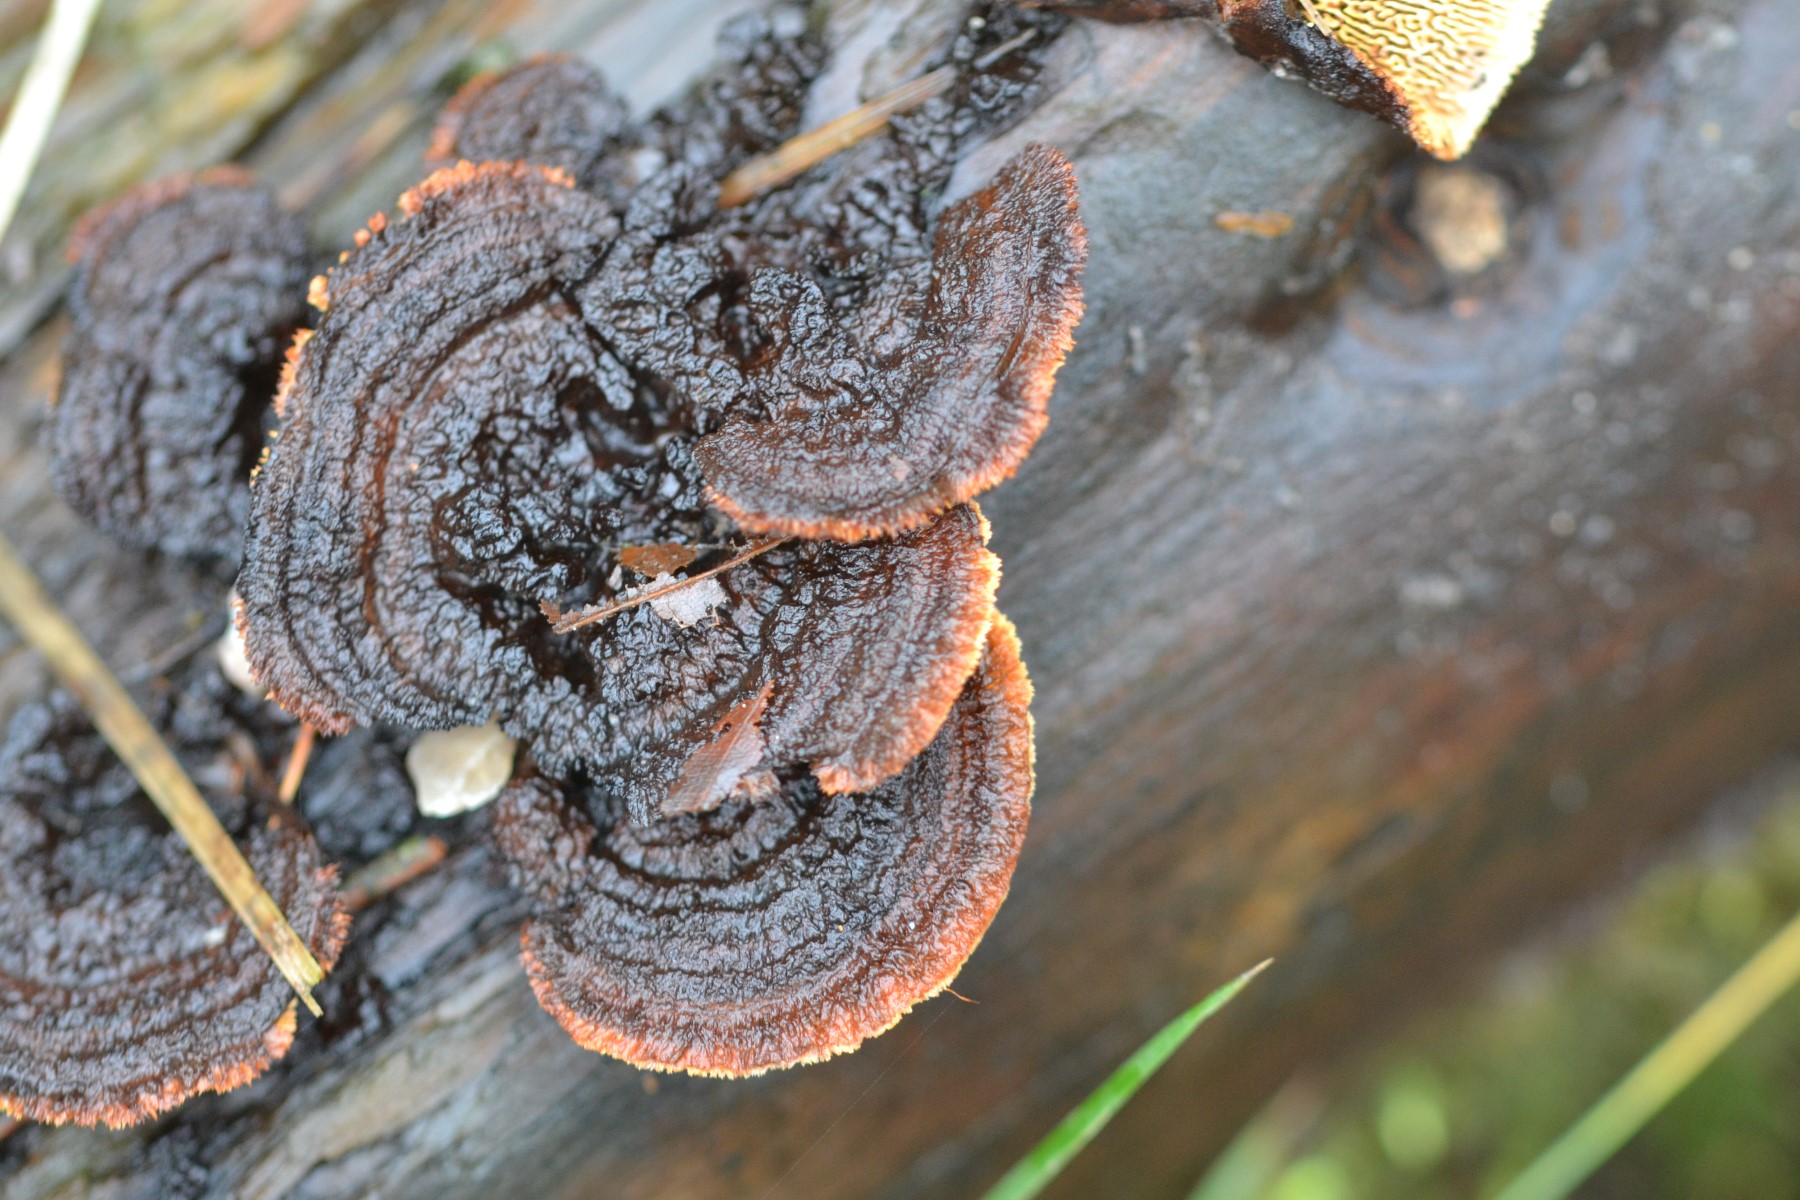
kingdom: Fungi
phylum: Basidiomycota
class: Agaricomycetes
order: Gloeophyllales
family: Gloeophyllaceae
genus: Gloeophyllum
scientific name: Gloeophyllum sepiarium
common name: fyrre-korkhat
